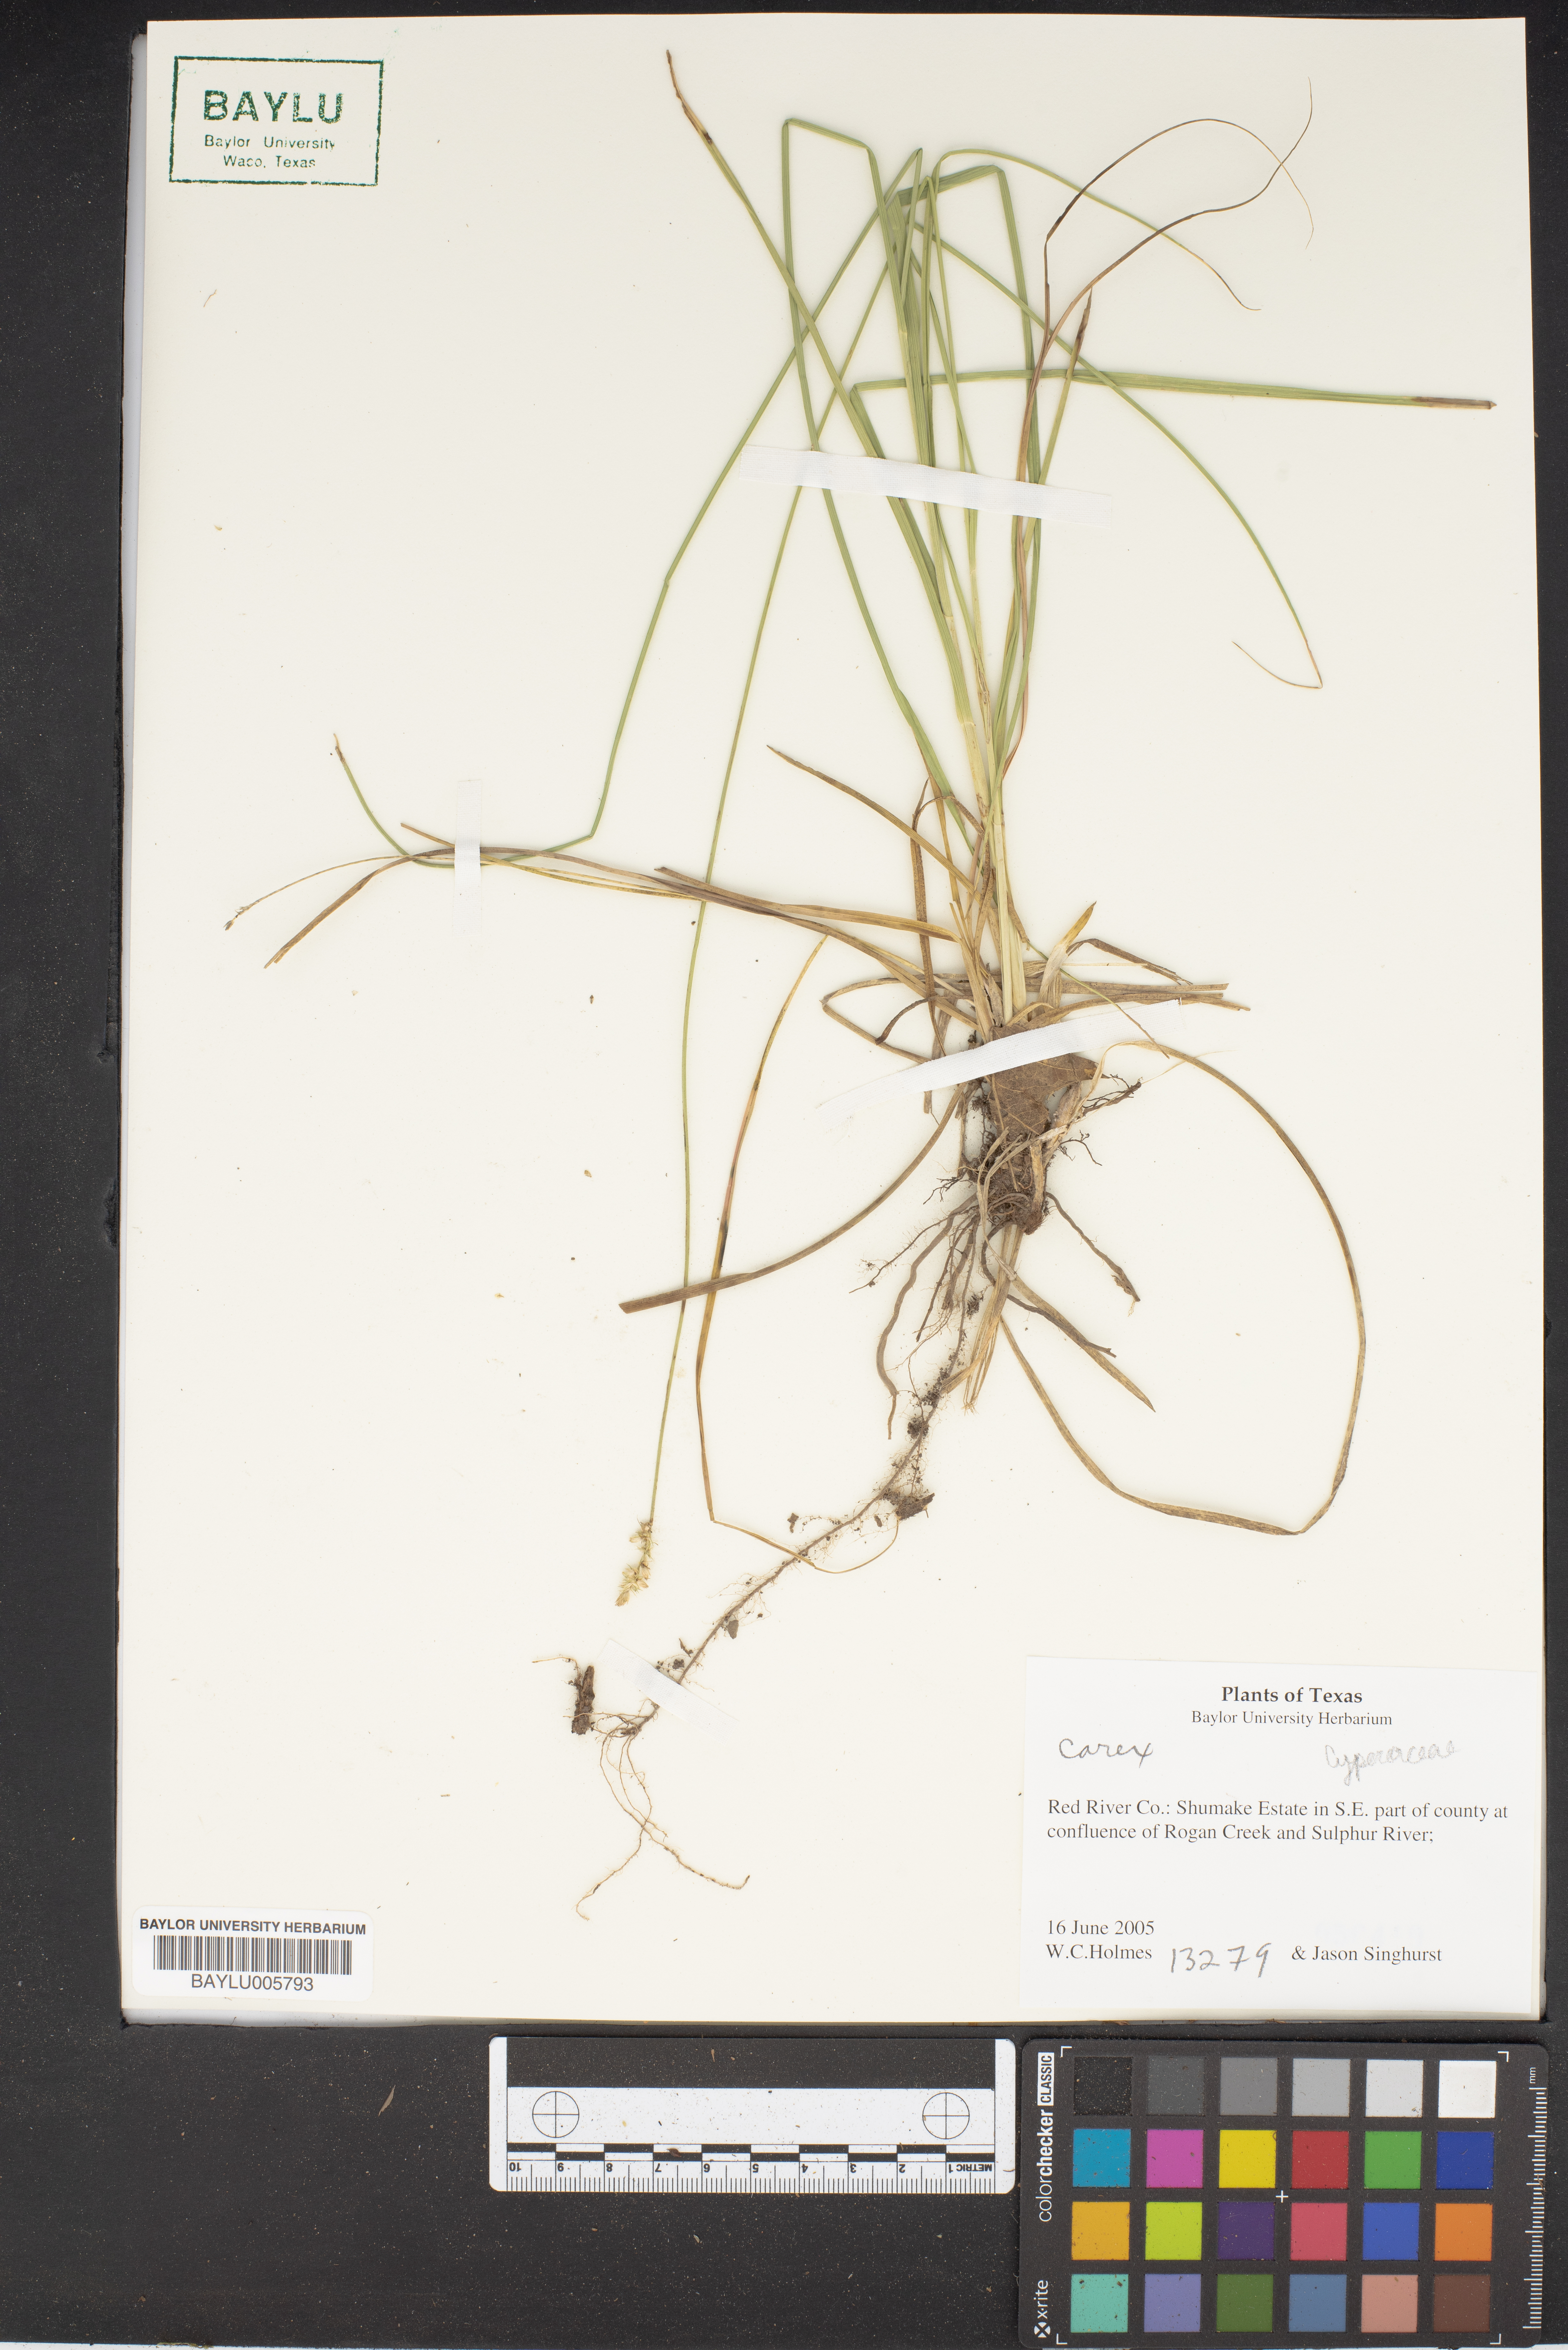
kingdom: Plantae
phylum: Tracheophyta
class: Liliopsida
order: Poales
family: Cyperaceae
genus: Carex
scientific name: Carex
